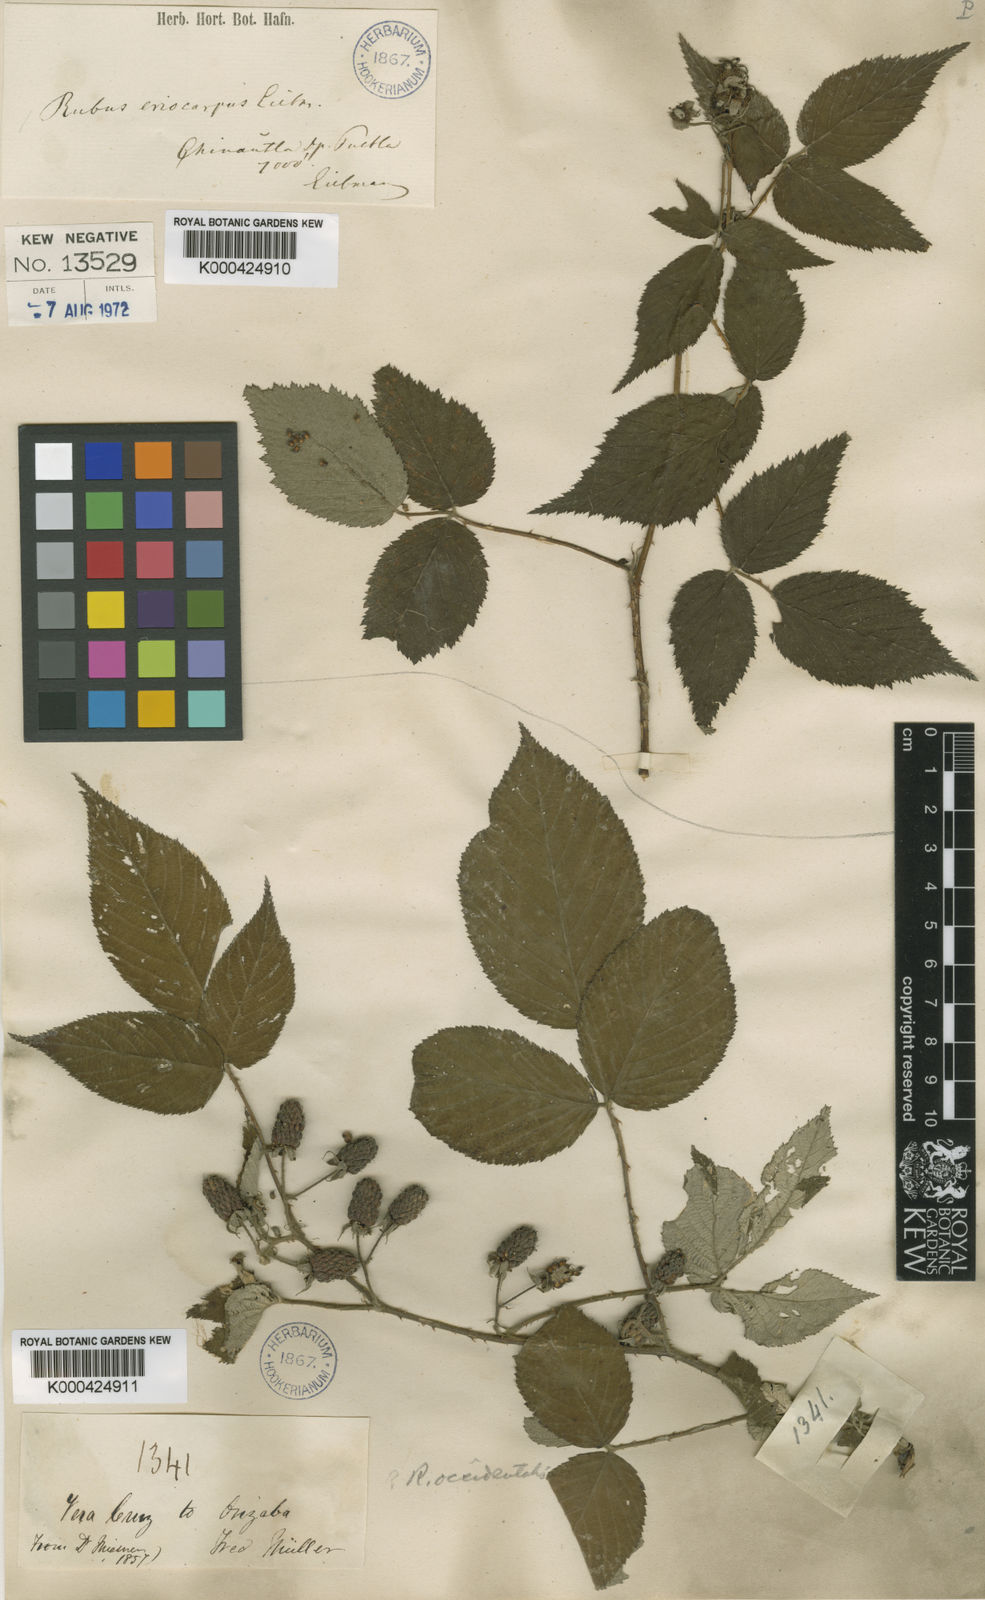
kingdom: Plantae
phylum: Tracheophyta
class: Magnoliopsida
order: Rosales
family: Rosaceae
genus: Rubus
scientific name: Rubus eriocarpus
